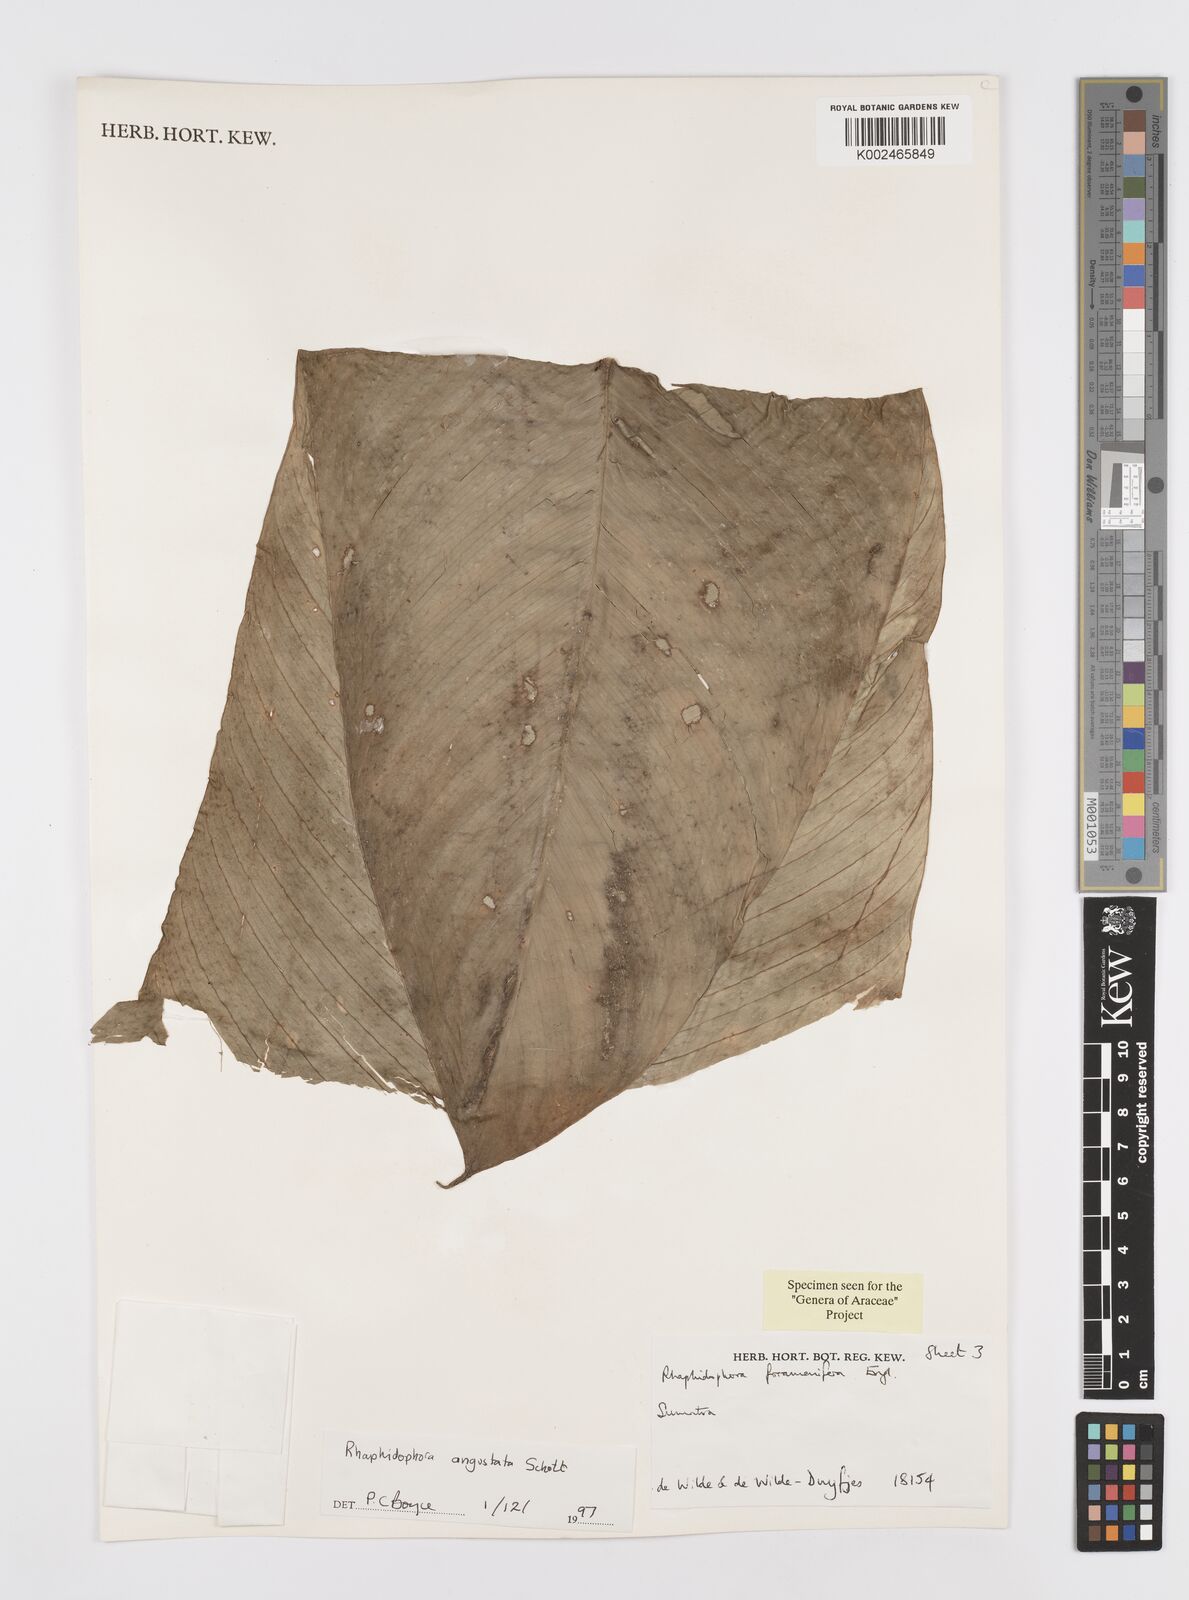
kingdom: Plantae
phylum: Tracheophyta
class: Liliopsida
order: Alismatales
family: Araceae
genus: Rhaphidophora
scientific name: Rhaphidophora angustata
